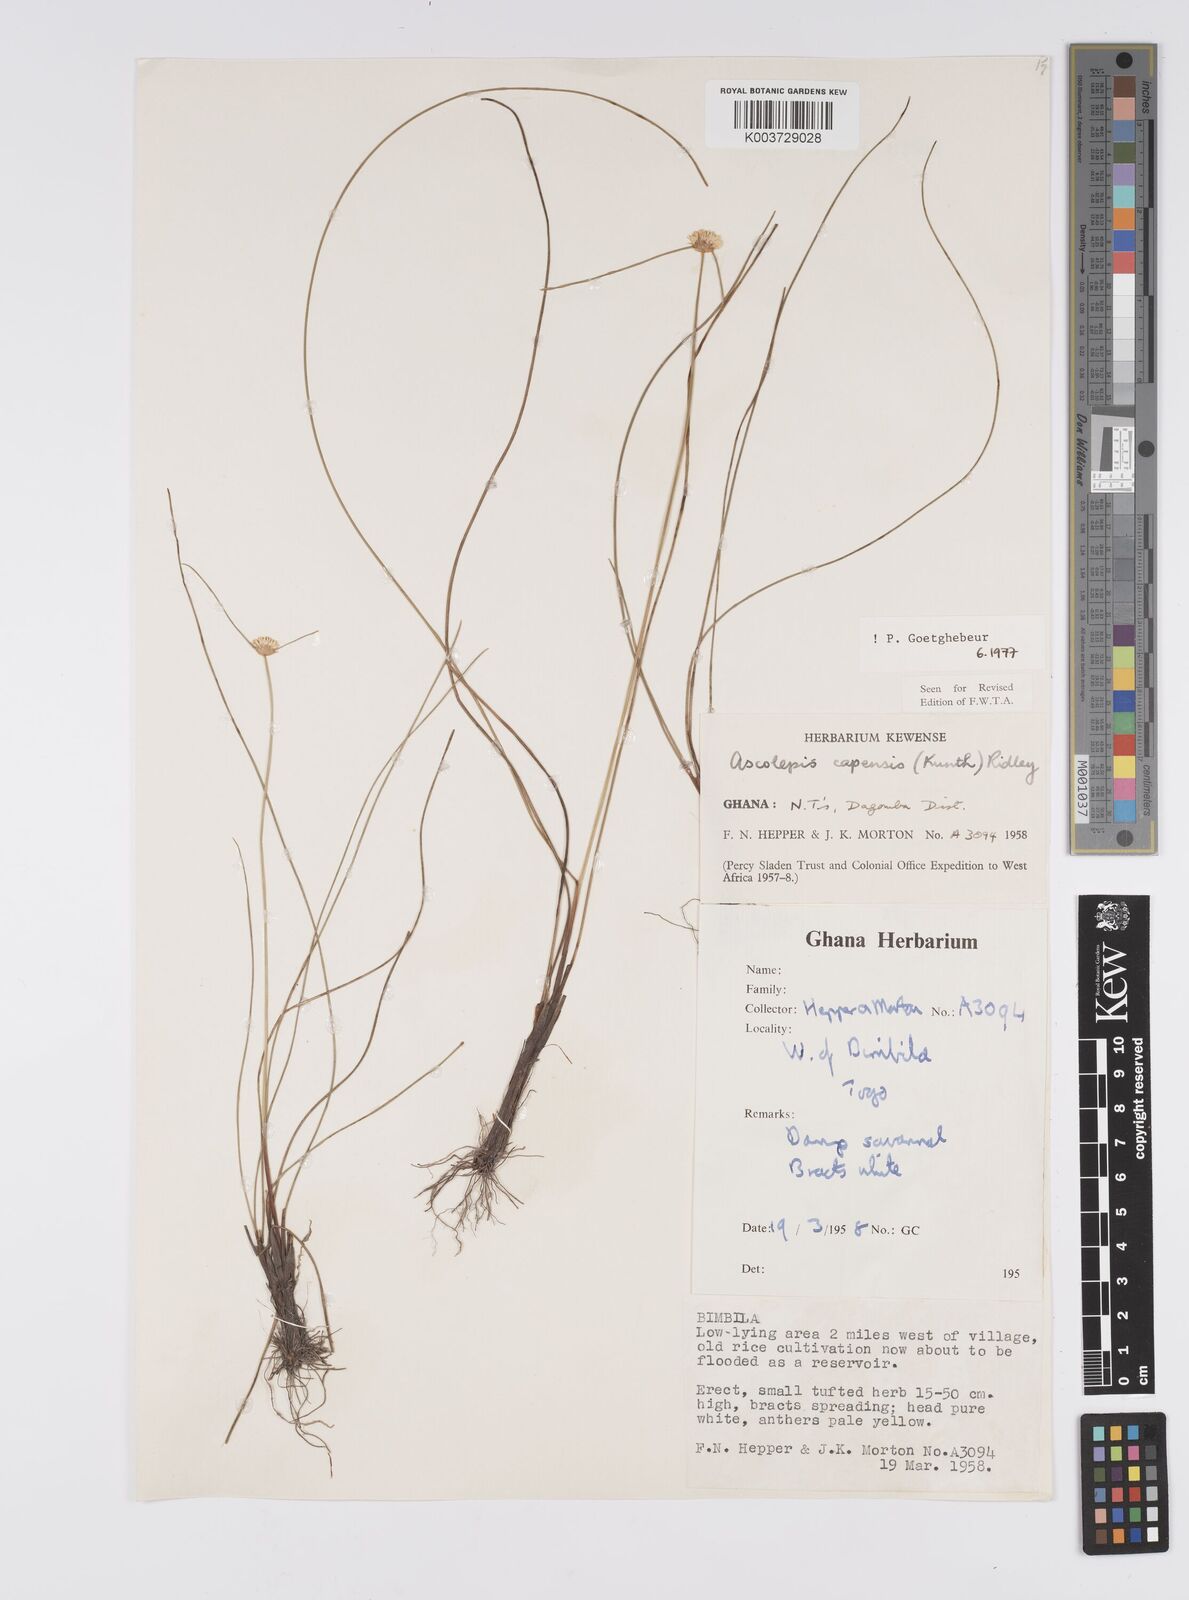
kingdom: Plantae
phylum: Tracheophyta
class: Liliopsida
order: Poales
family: Cyperaceae
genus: Ascolepis
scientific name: Ascolepis
